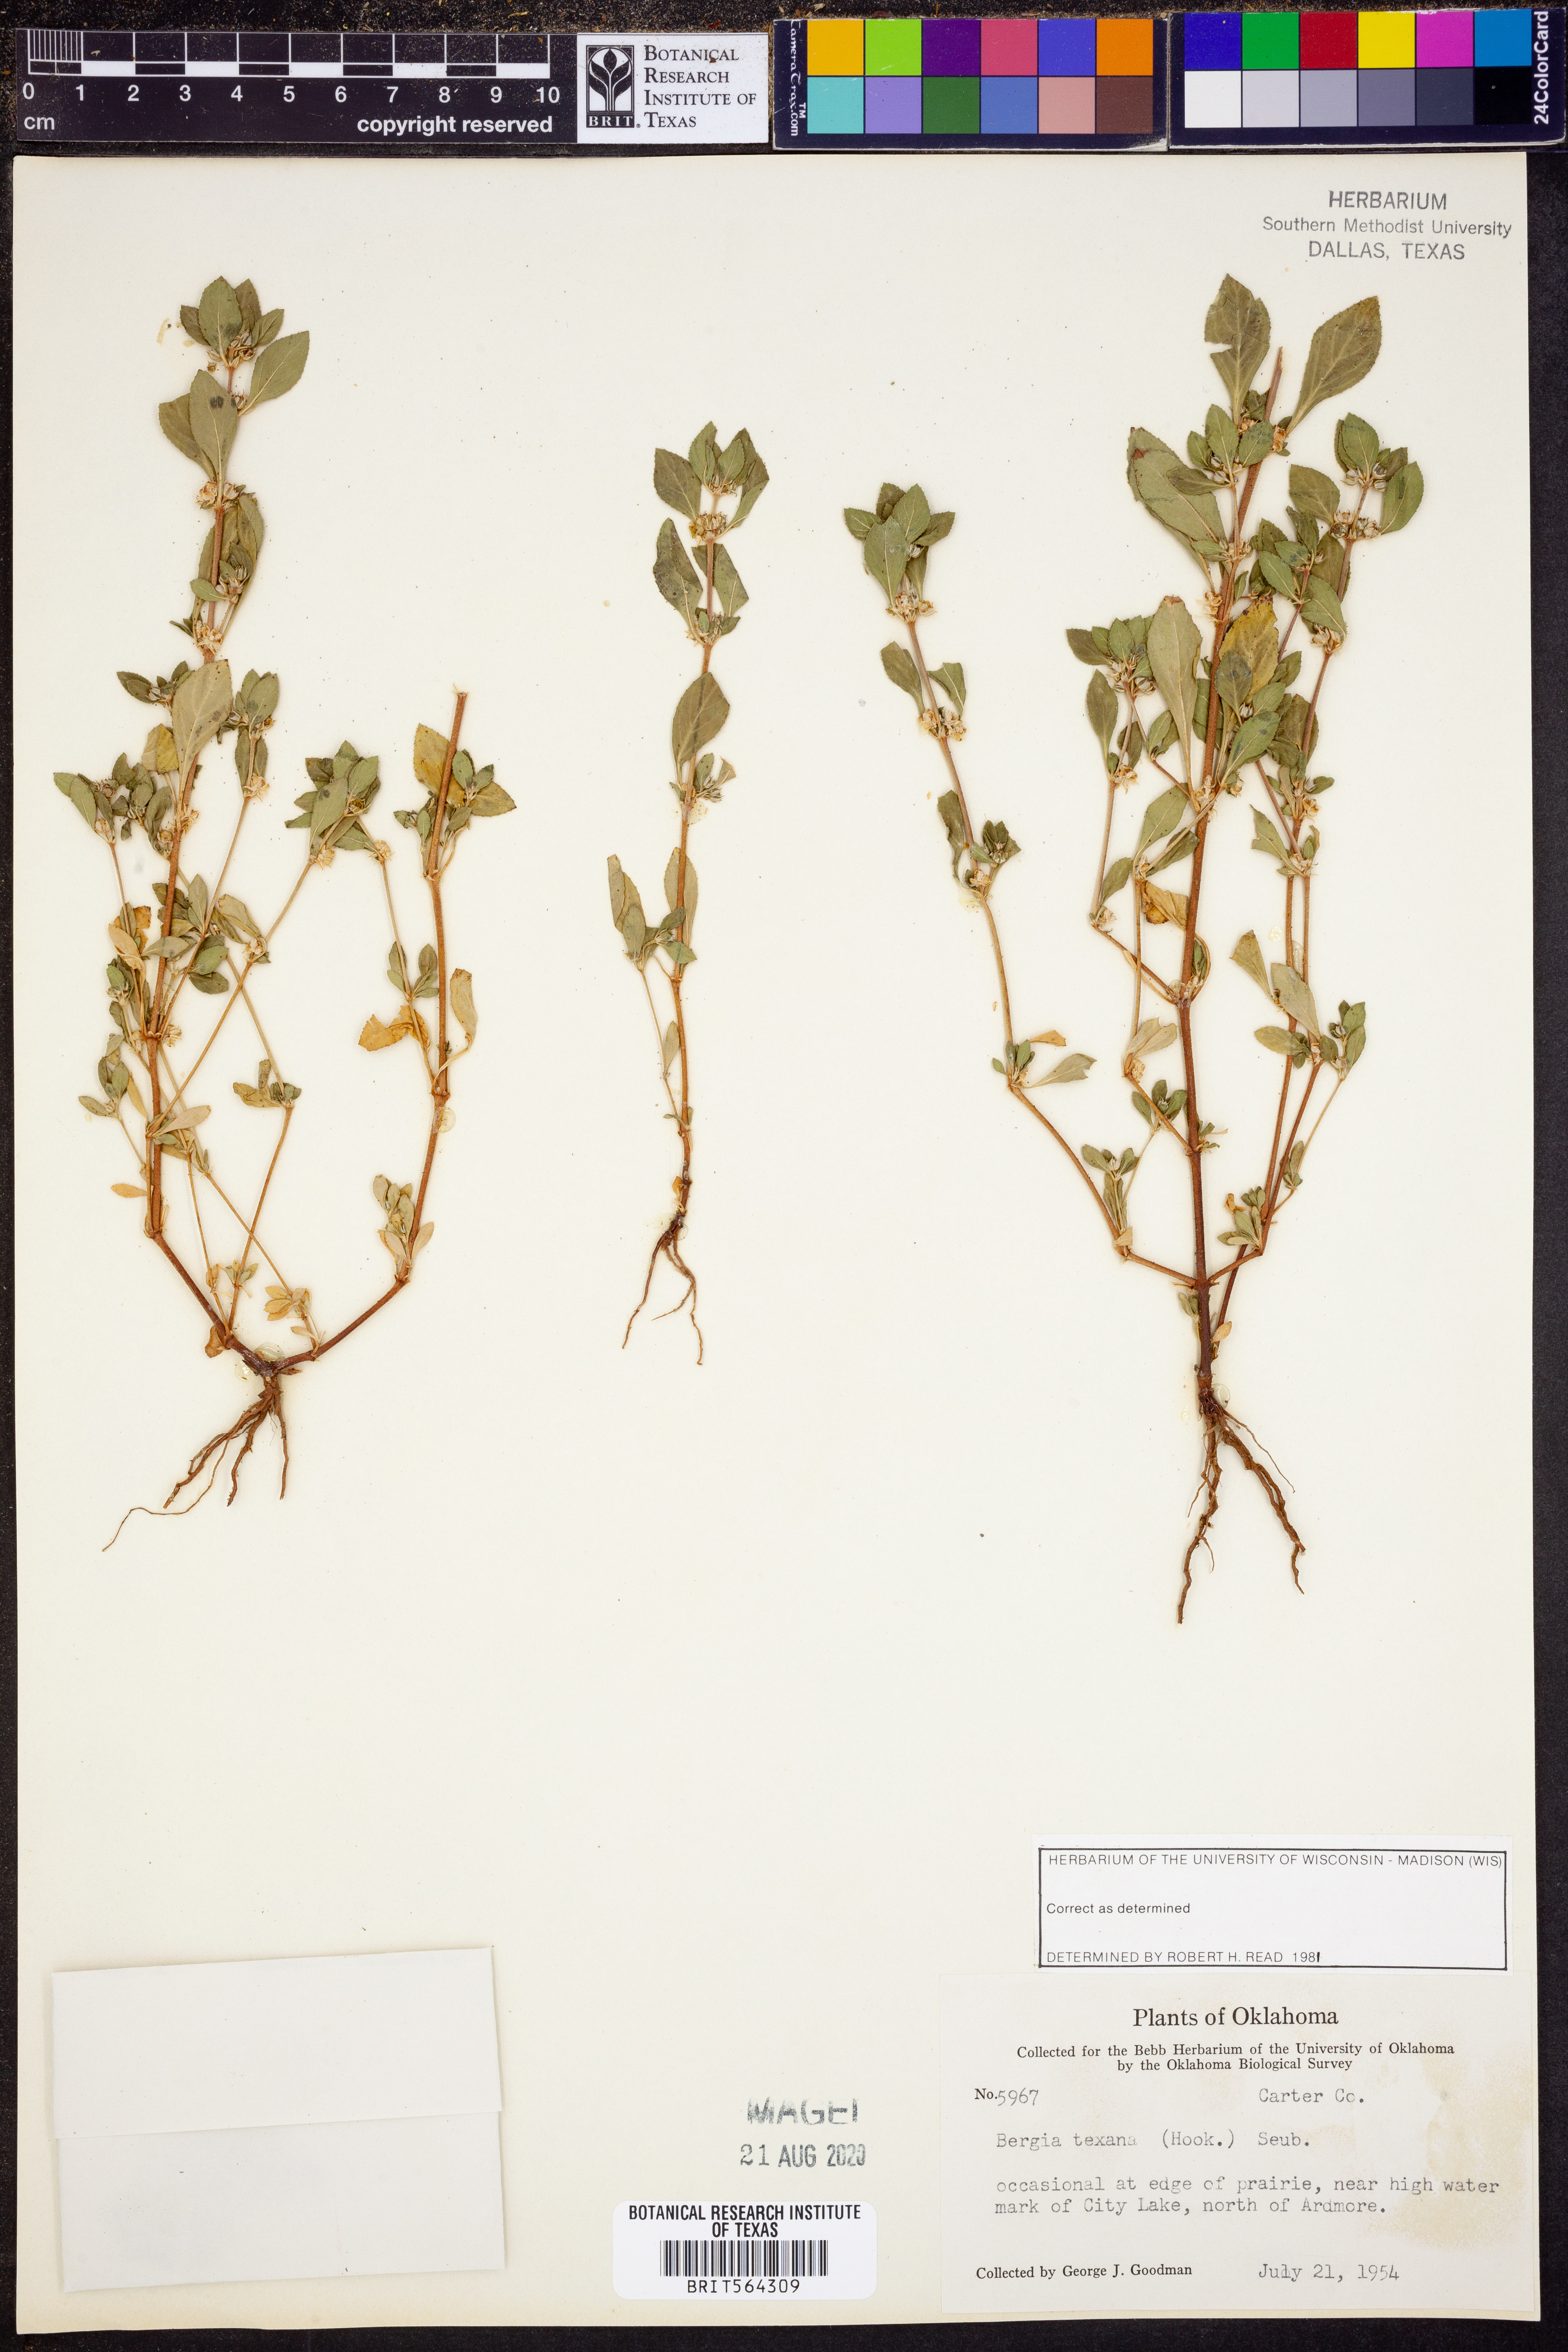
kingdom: Plantae
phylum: Tracheophyta
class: Magnoliopsida
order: Malpighiales
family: Elatinaceae
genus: Bergia
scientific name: Bergia texana
